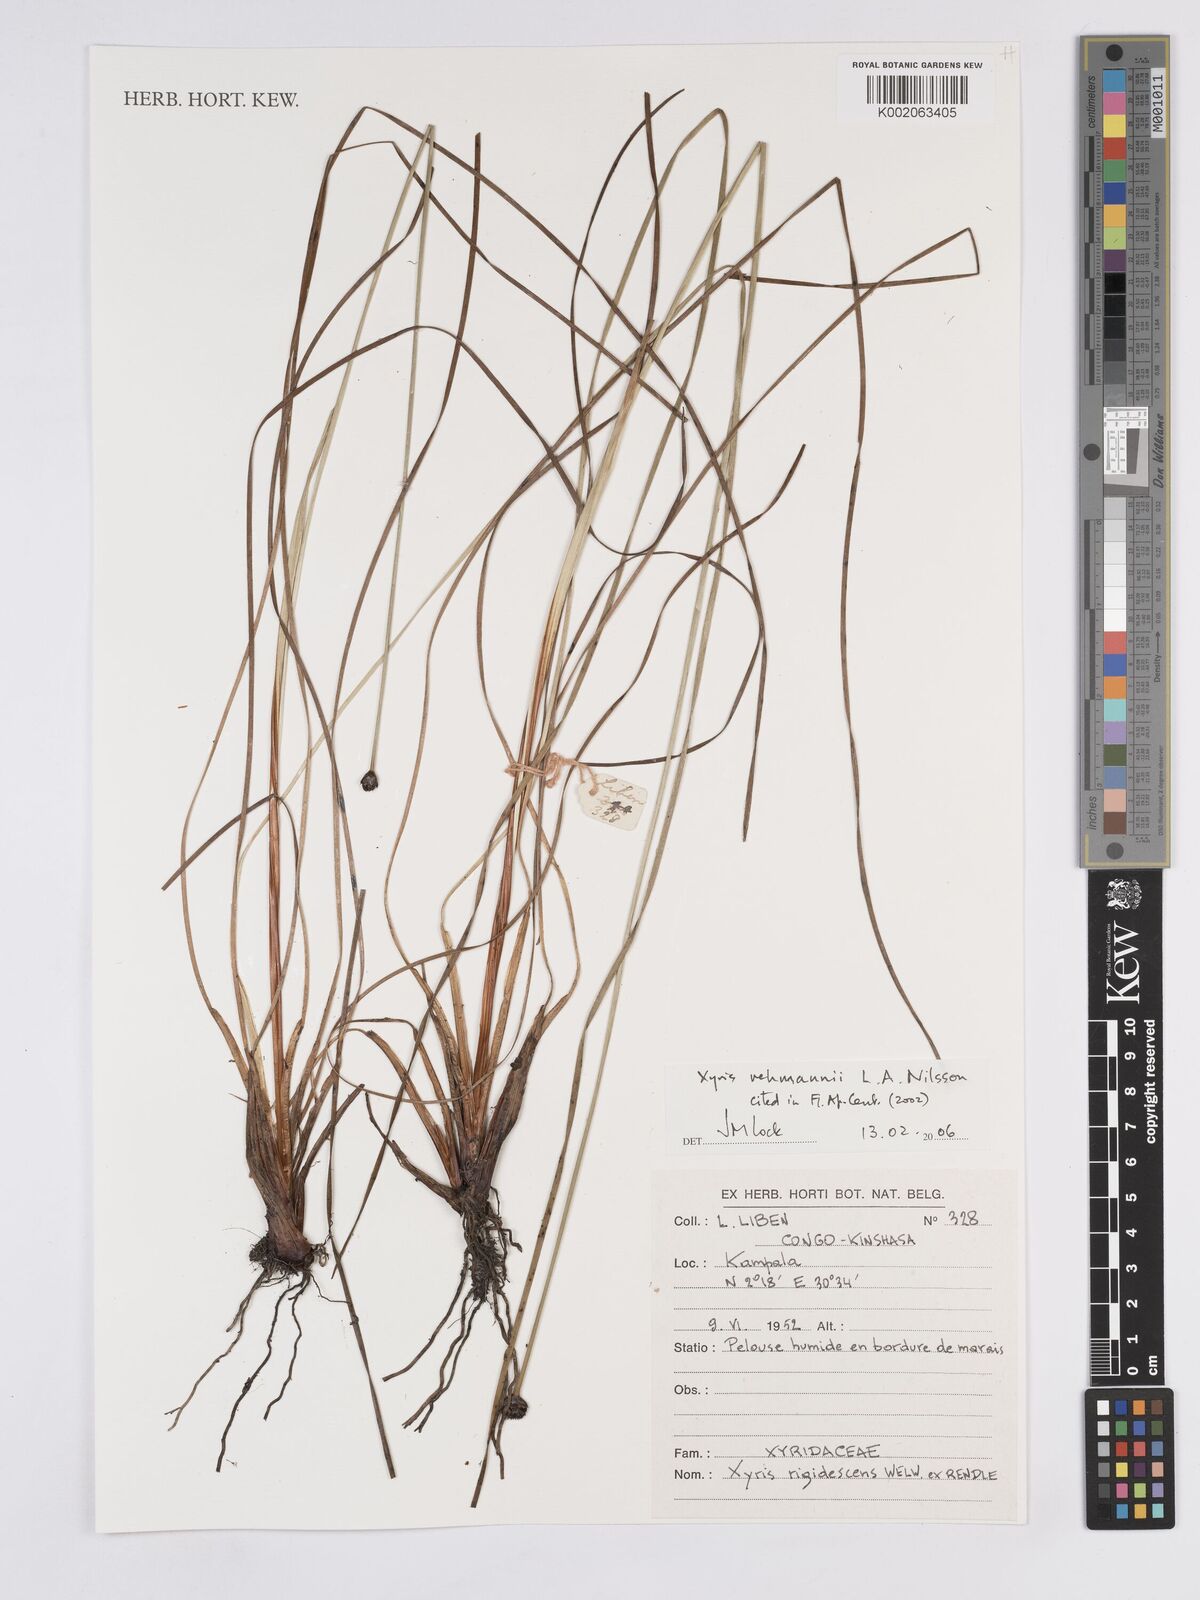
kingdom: Plantae
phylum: Tracheophyta
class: Liliopsida
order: Poales
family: Xyridaceae
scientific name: Xyridaceae
